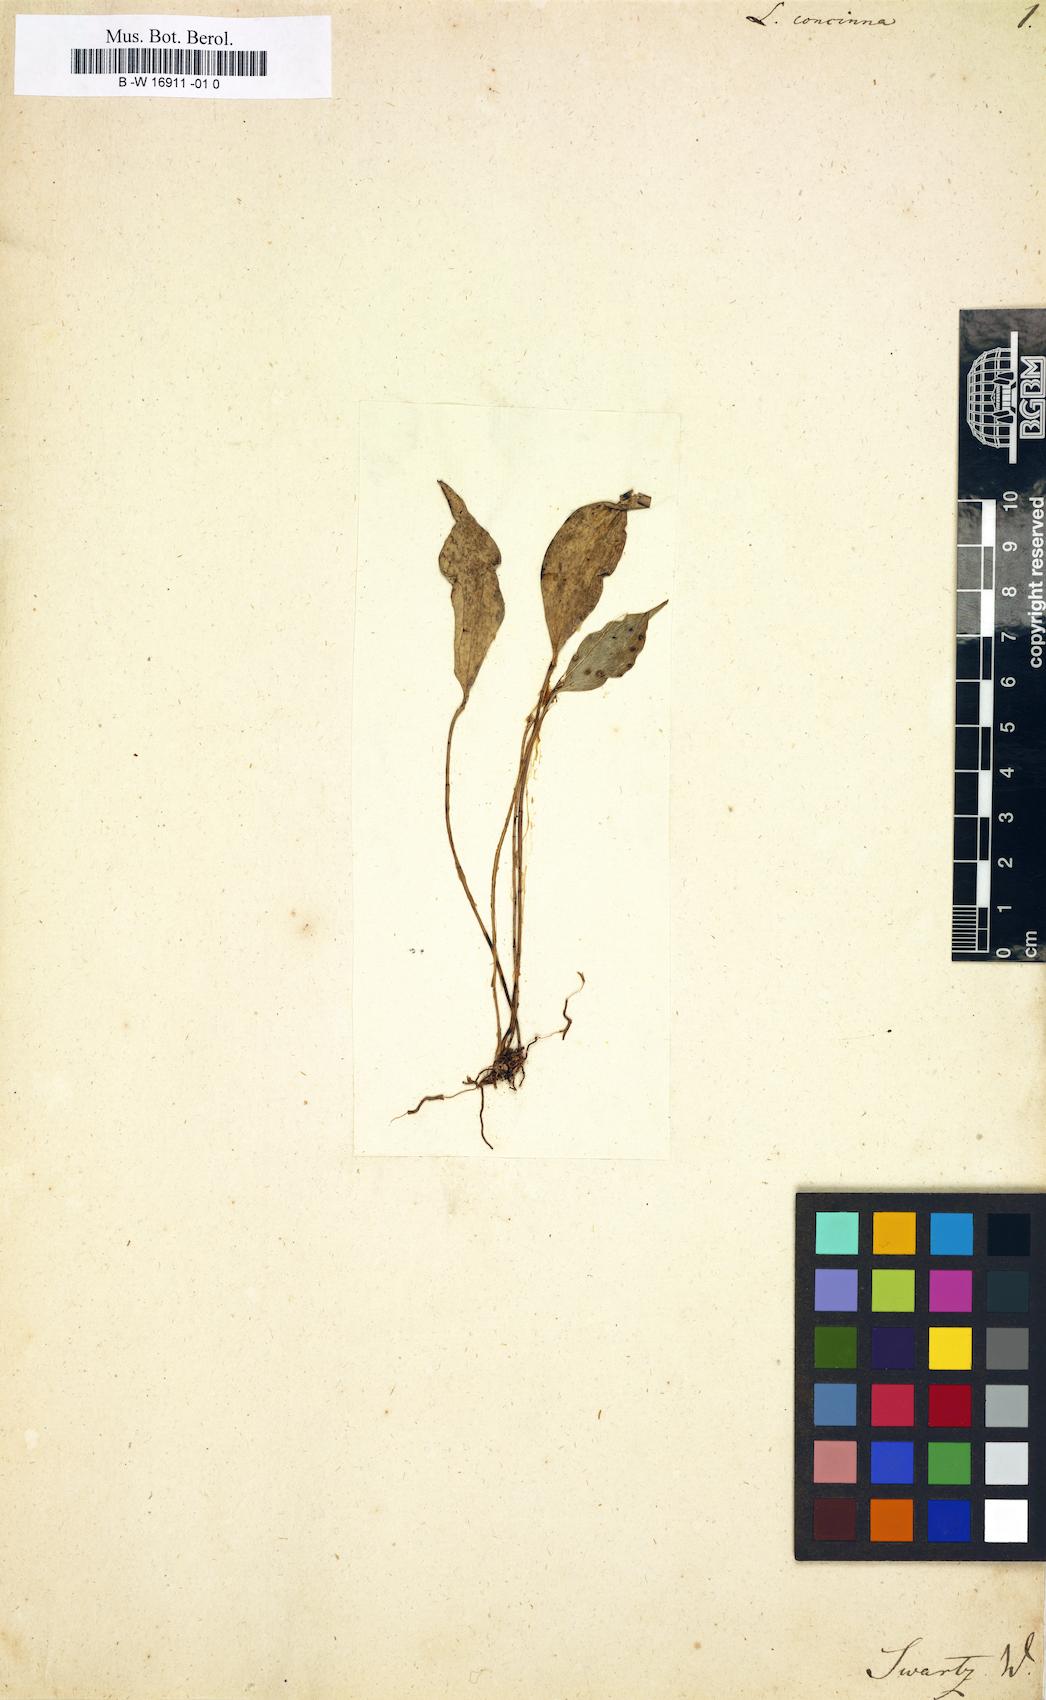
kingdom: Plantae
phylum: Tracheophyta
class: Liliopsida
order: Asparagales
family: Orchidaceae
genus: Lepanthes
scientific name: Lepanthes ovalis
